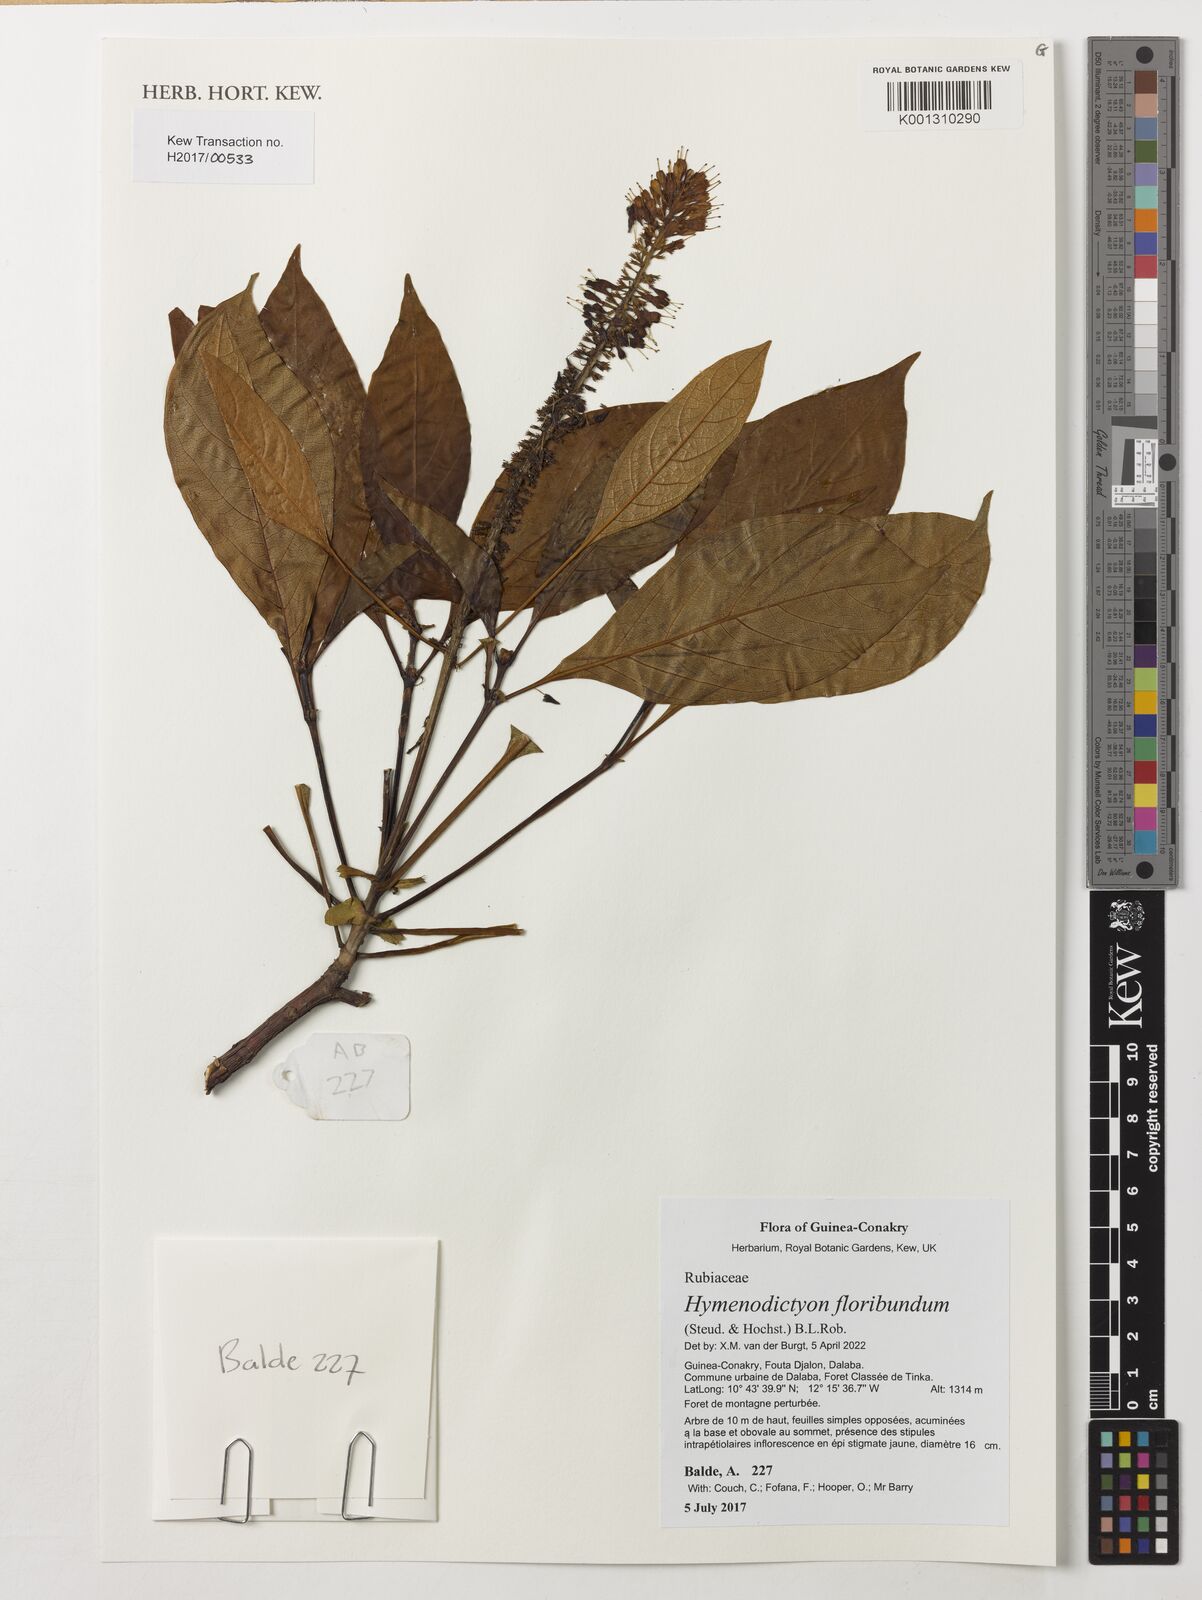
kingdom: Plantae
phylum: Tracheophyta
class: Magnoliopsida
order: Gentianales
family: Rubiaceae
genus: Hymenodictyon
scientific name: Hymenodictyon floribundum
